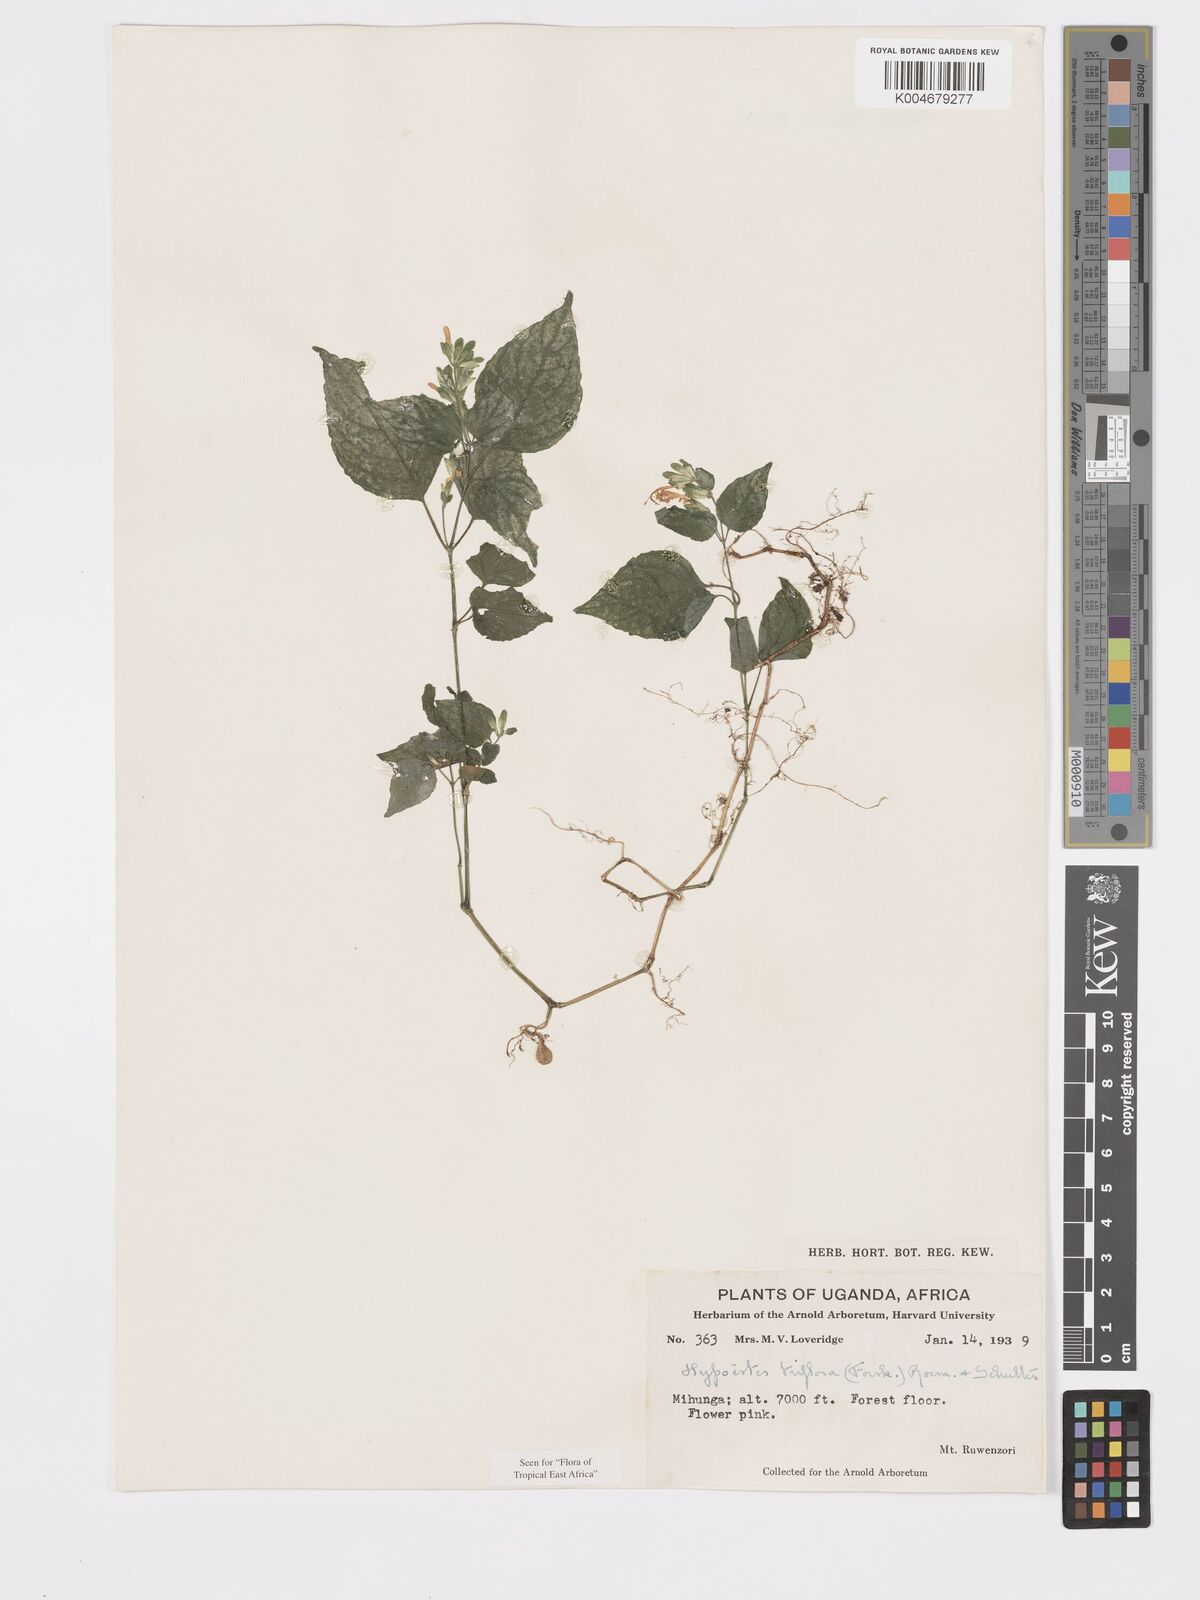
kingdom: Plantae
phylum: Tracheophyta
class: Magnoliopsida
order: Lamiales
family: Acanthaceae
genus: Hypoestes
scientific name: Hypoestes triflora
